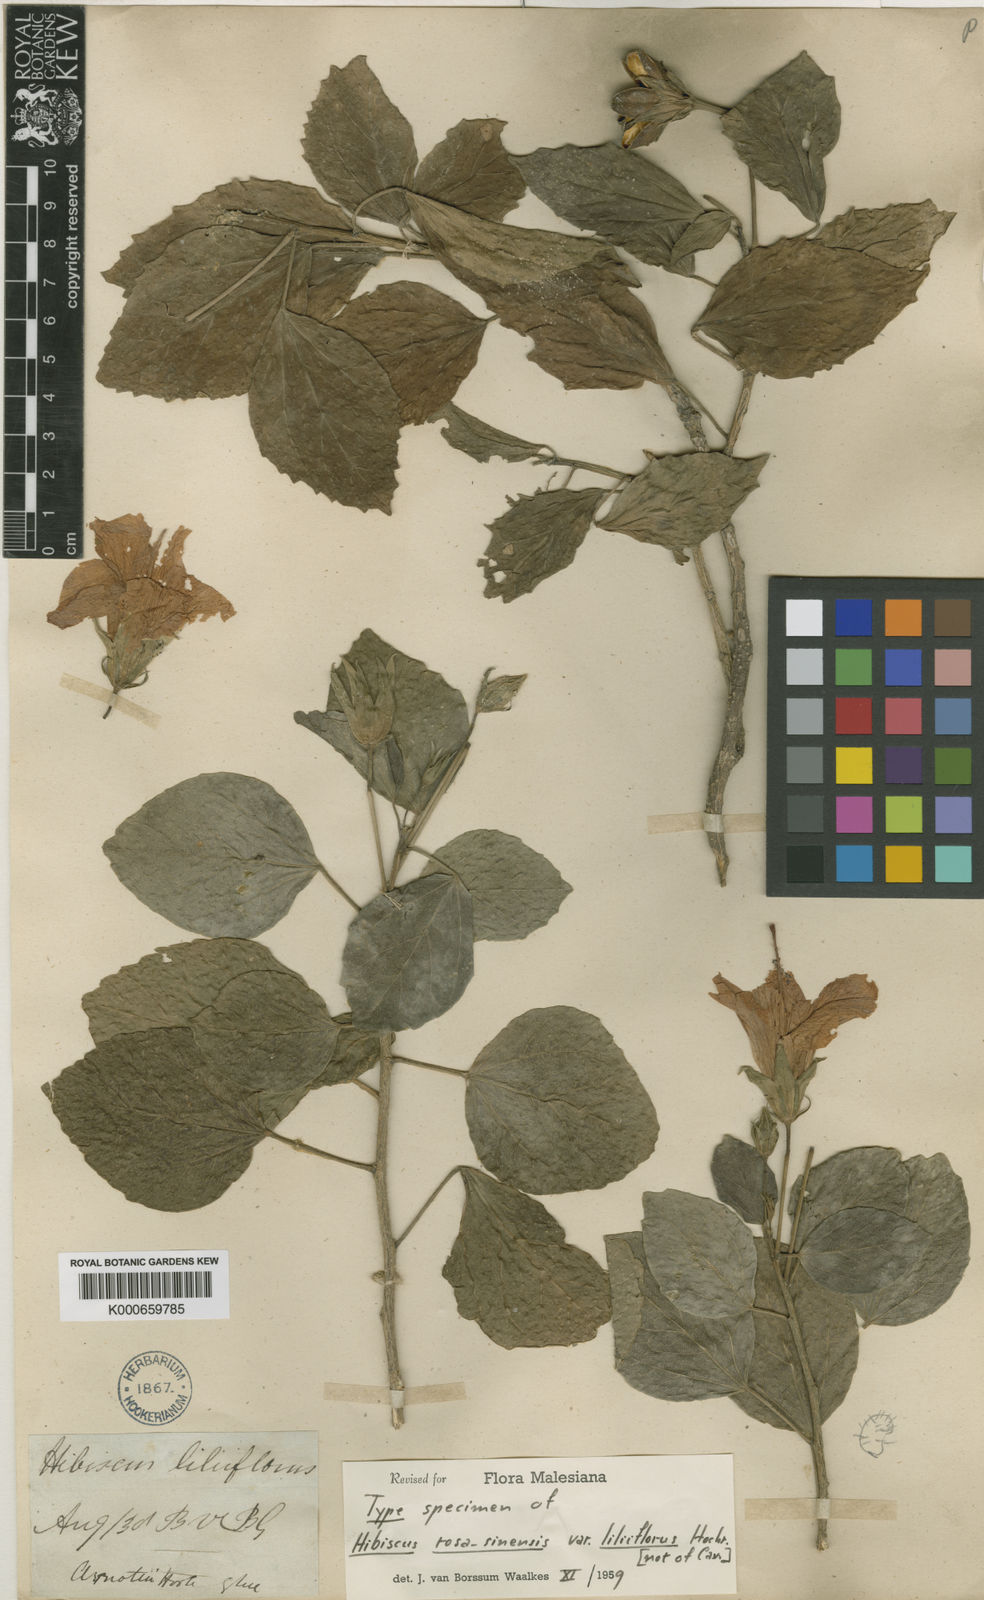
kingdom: Plantae
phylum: Tracheophyta
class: Magnoliopsida
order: Malvales
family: Malvaceae
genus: Hibiscus
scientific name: Hibiscus rosa-sinensis
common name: Hibiscus
